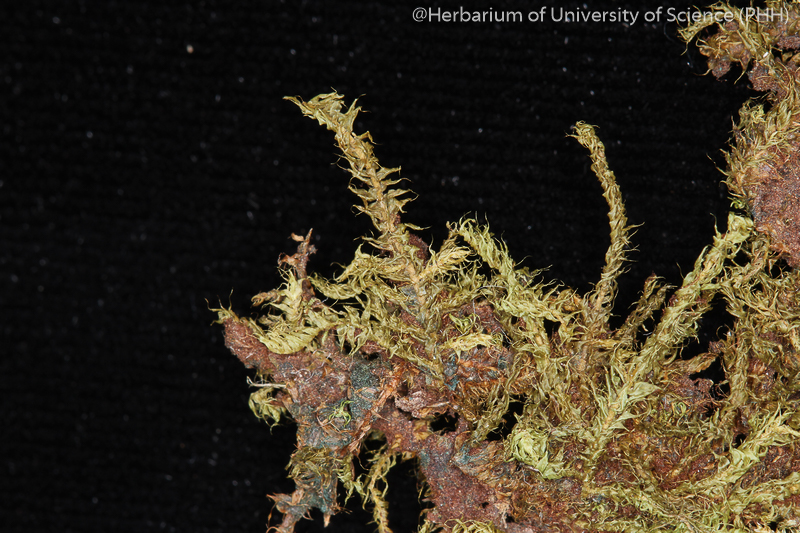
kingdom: Plantae
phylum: Bryophyta
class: Bryopsida
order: Hypnodendrales
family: Racopilaceae
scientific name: Racopilaceae
